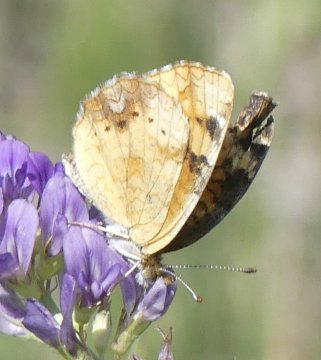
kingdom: Animalia
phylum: Arthropoda
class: Insecta
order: Lepidoptera
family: Nymphalidae
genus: Phyciodes
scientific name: Phyciodes tharos
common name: Northern Crescent
